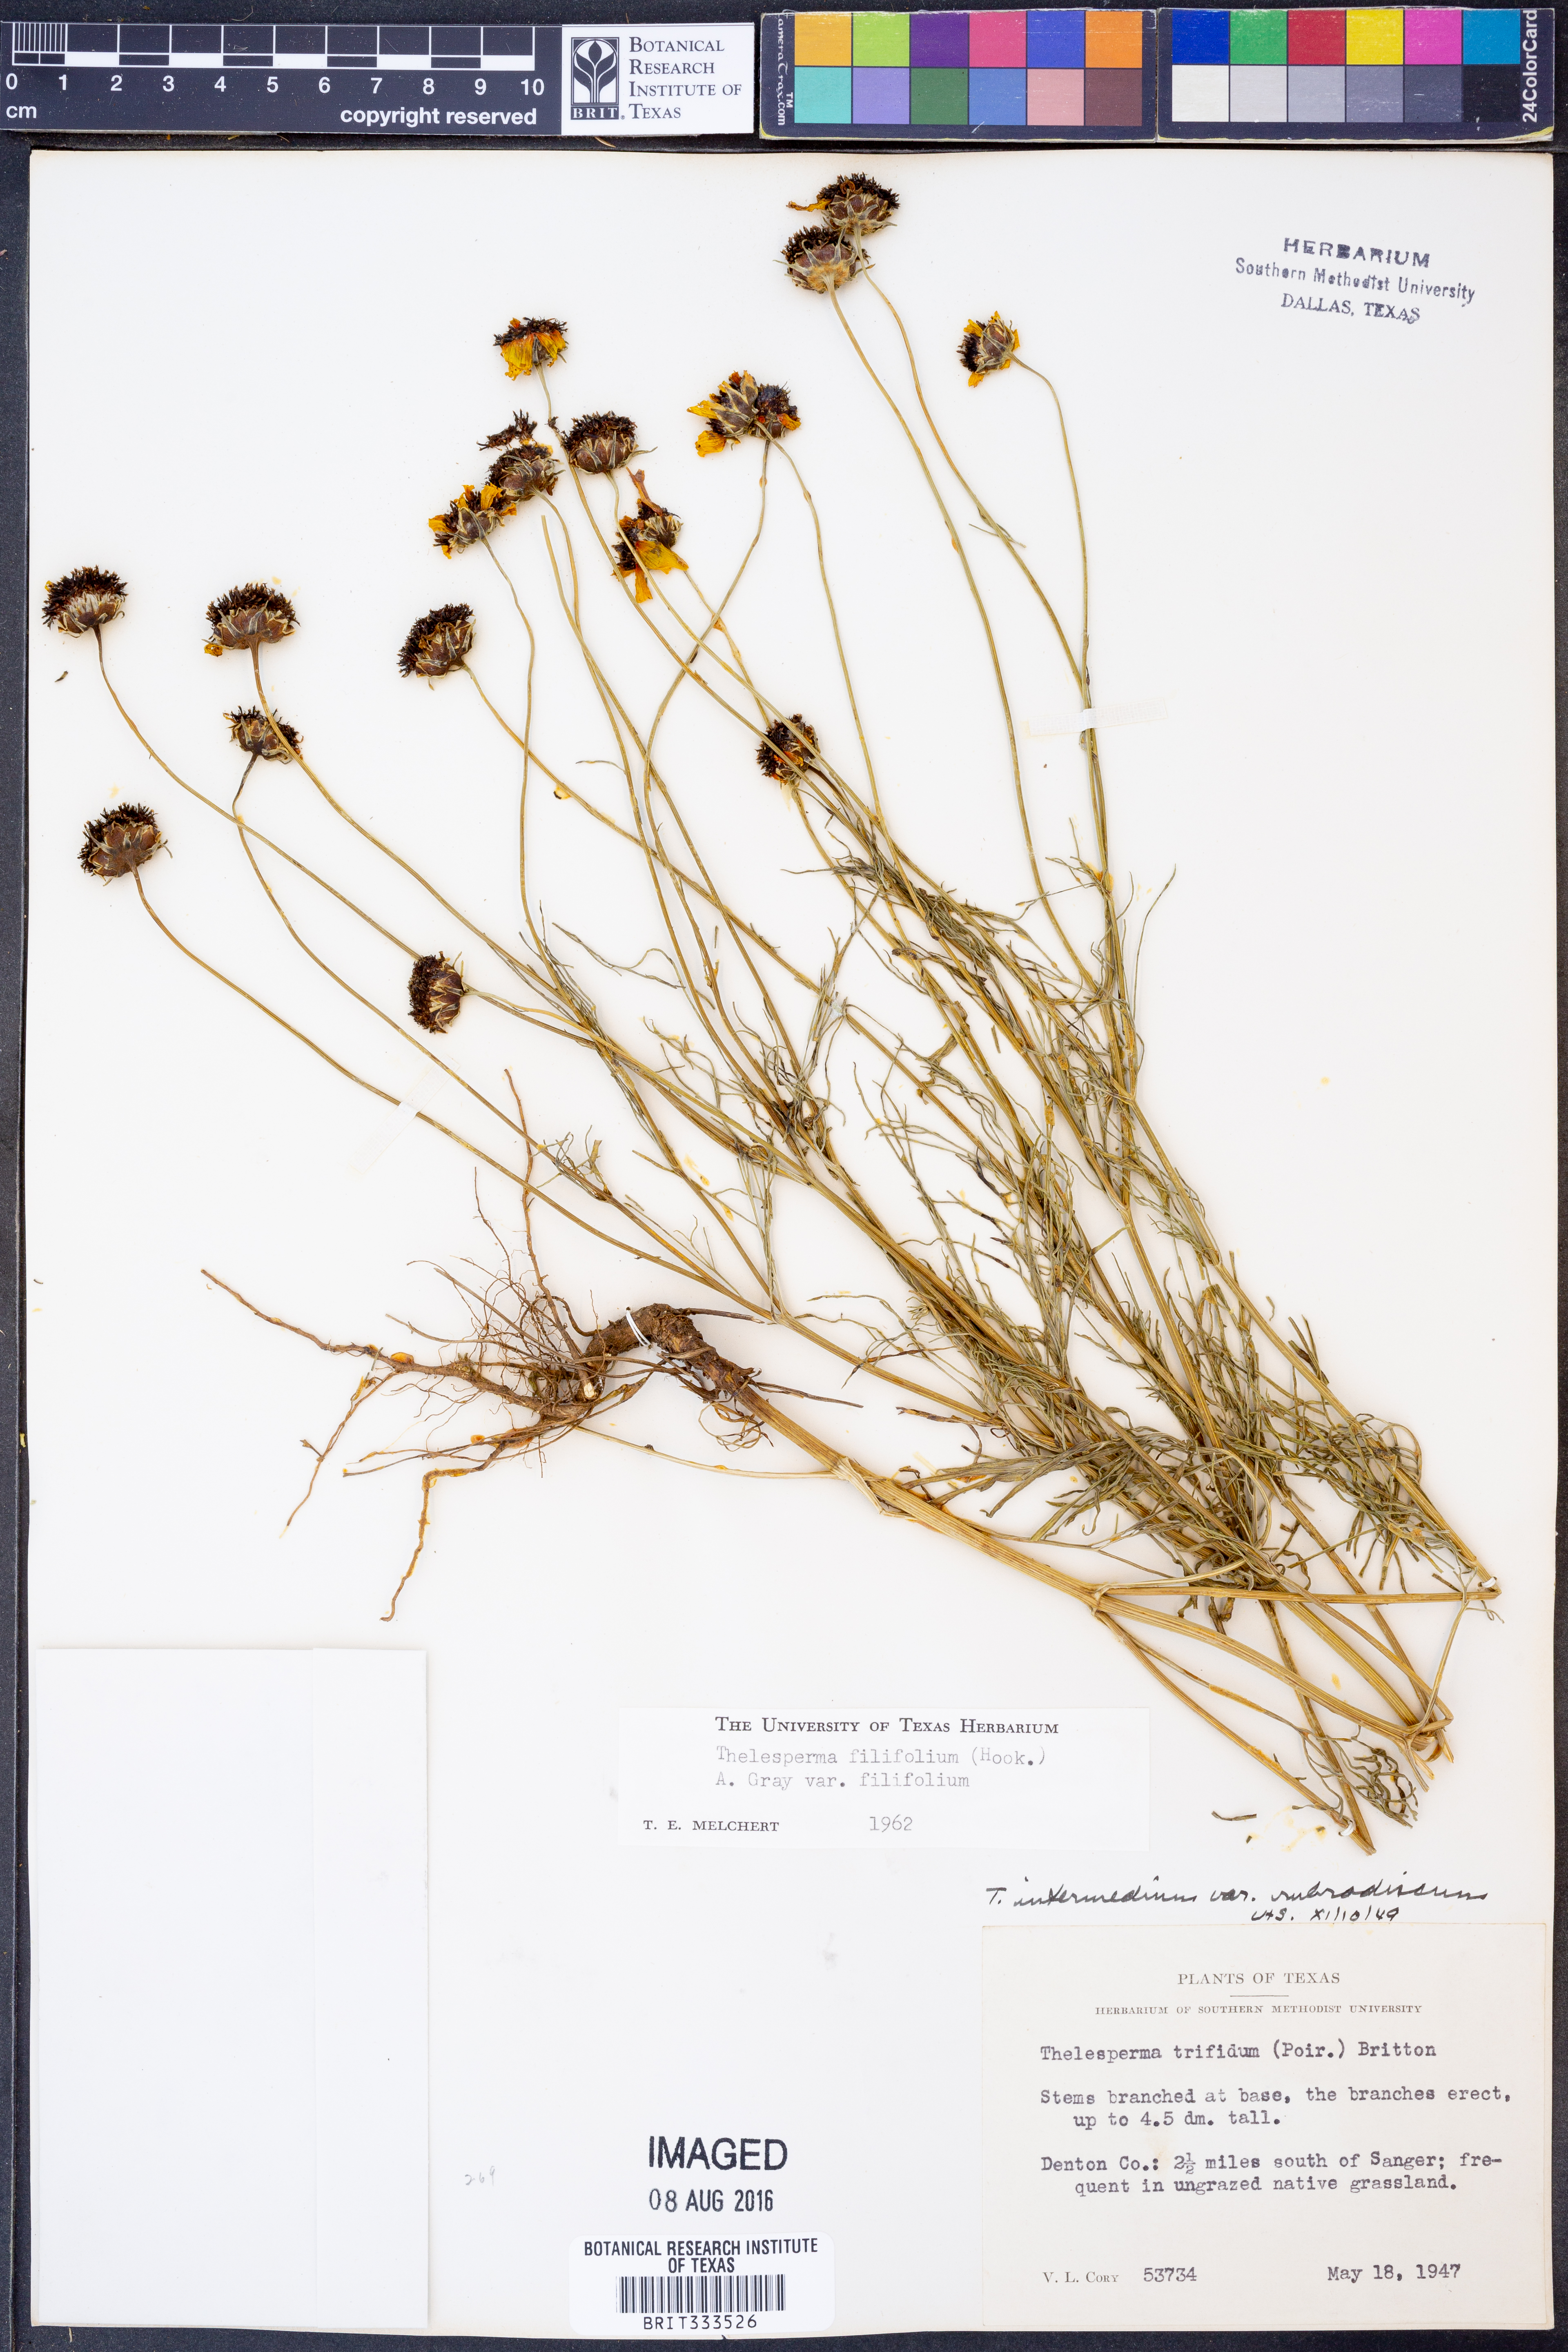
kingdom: Plantae
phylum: Tracheophyta
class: Magnoliopsida
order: Asterales
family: Asteraceae
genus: Thelesperma
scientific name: Thelesperma filifolium
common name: Stiff greenthread
